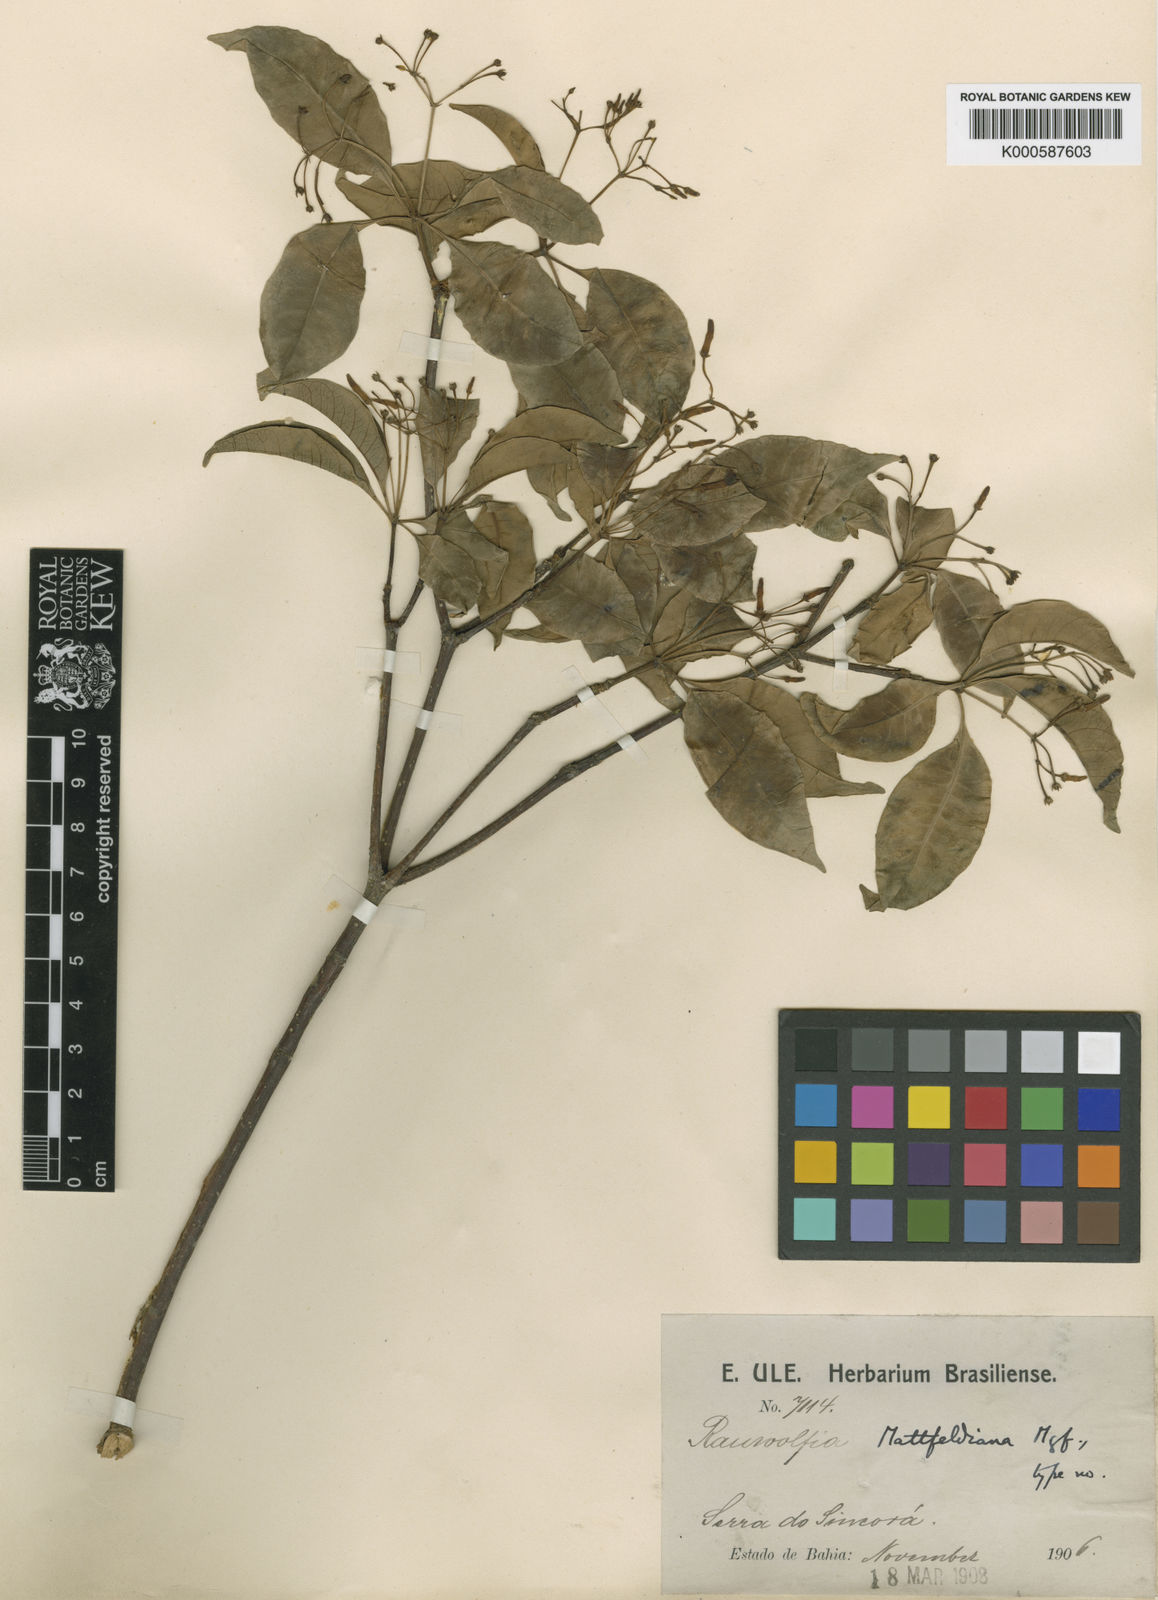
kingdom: Plantae
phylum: Tracheophyta
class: Magnoliopsida
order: Gentianales
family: Apocynaceae
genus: Rauvolfia
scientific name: Rauvolfia mattfeldiana
